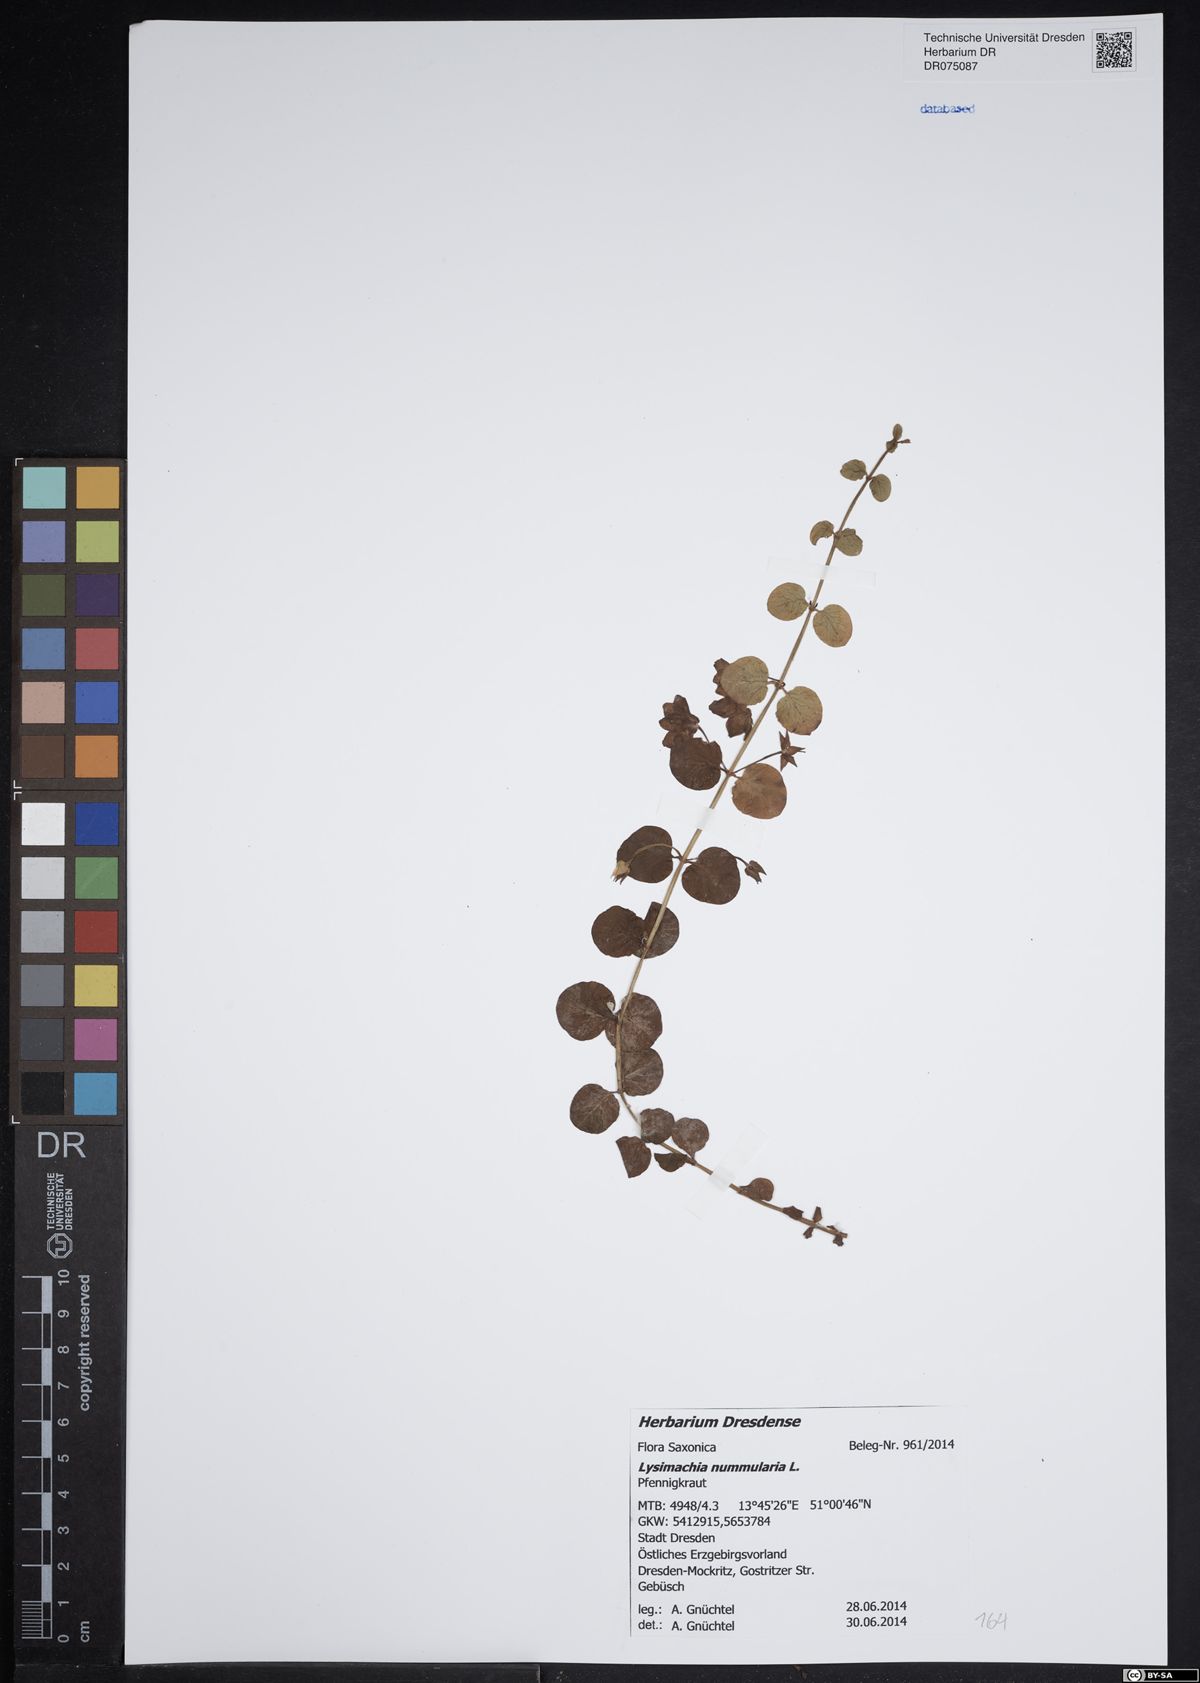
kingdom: Plantae
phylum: Tracheophyta
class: Magnoliopsida
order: Ericales
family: Primulaceae
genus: Lysimachia
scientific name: Lysimachia nummularia
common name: Moneywort
